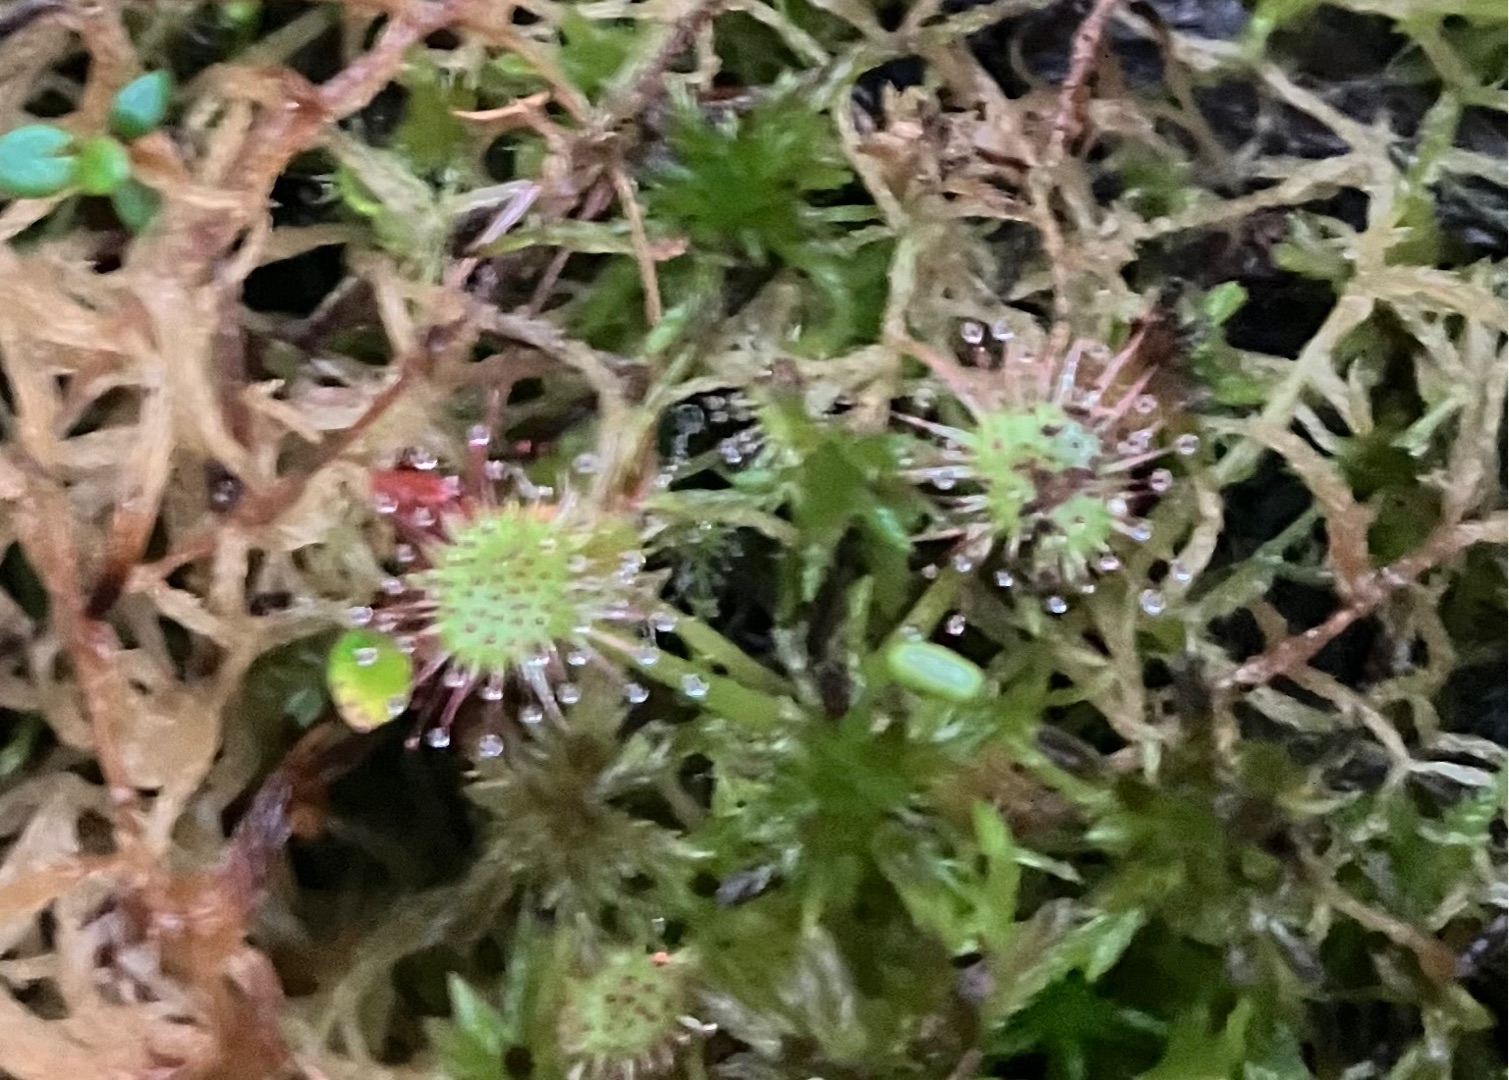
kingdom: Plantae
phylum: Tracheophyta
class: Magnoliopsida
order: Caryophyllales
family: Droseraceae
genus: Drosera
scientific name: Drosera rotundifolia
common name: Rundbladet soldug
